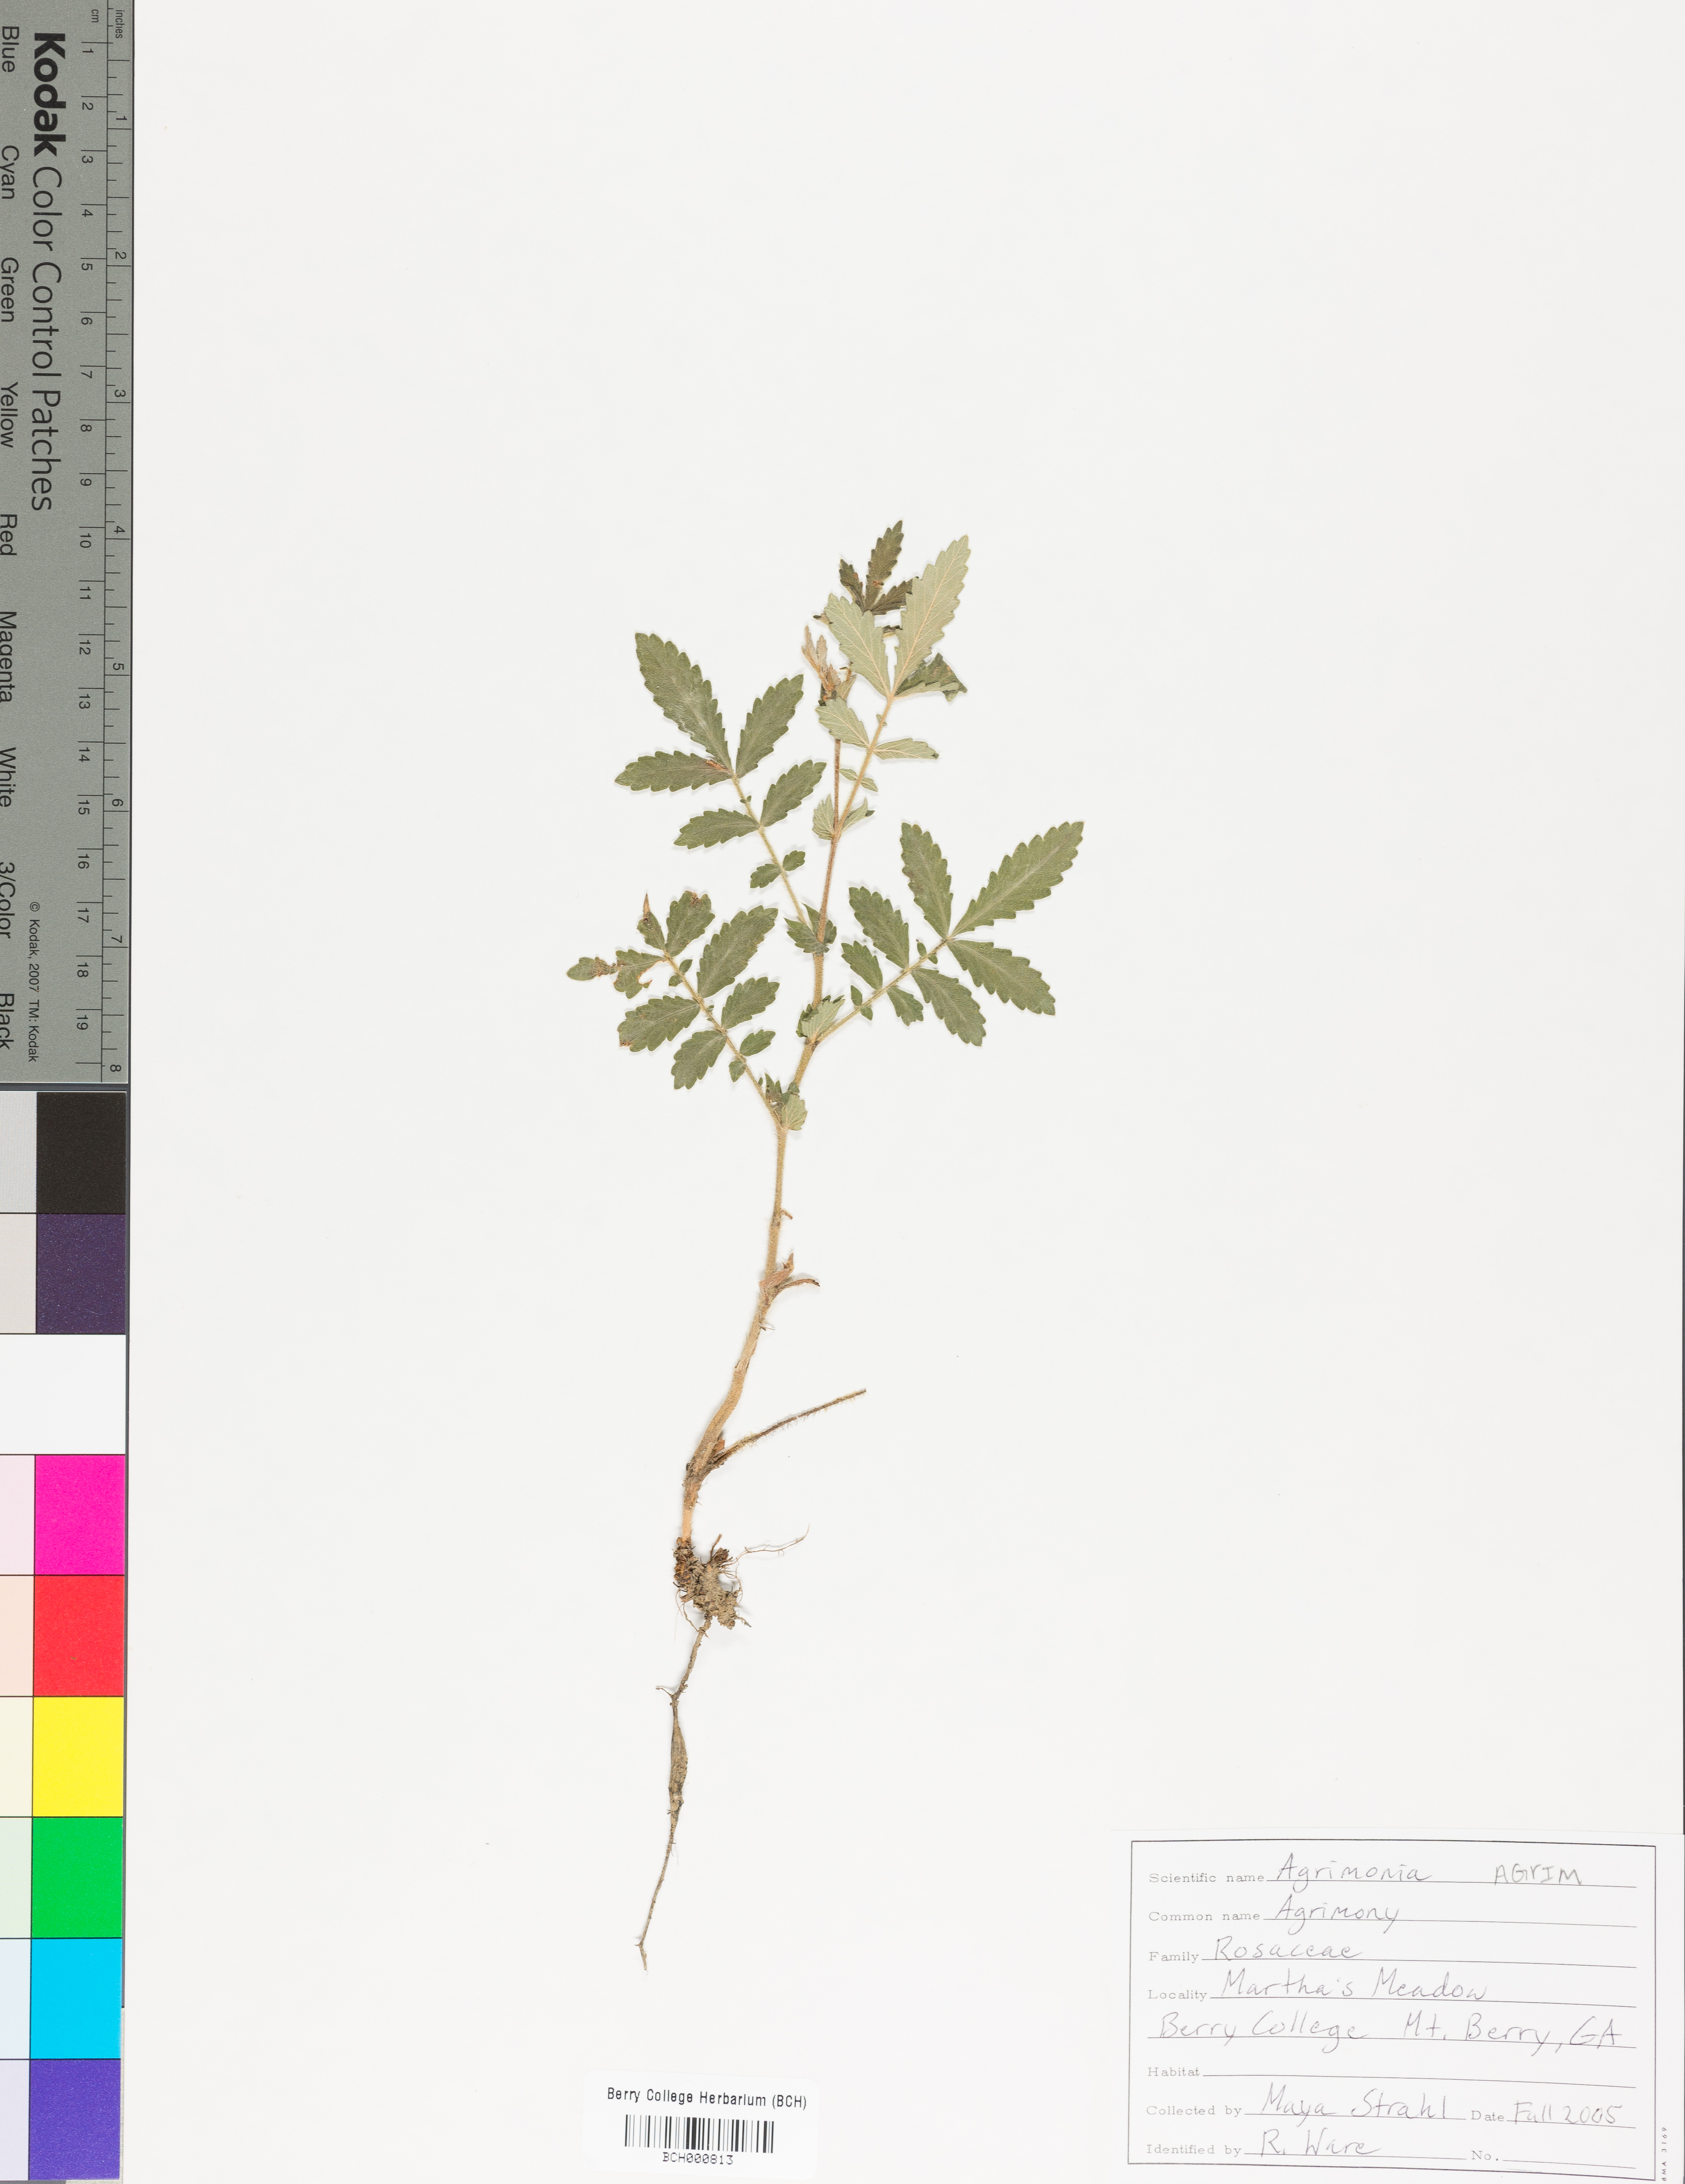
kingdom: Plantae
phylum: Tracheophyta
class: Magnoliopsida
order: Rosales
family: Rosaceae
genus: Agrimonia
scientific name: Agrimonia
